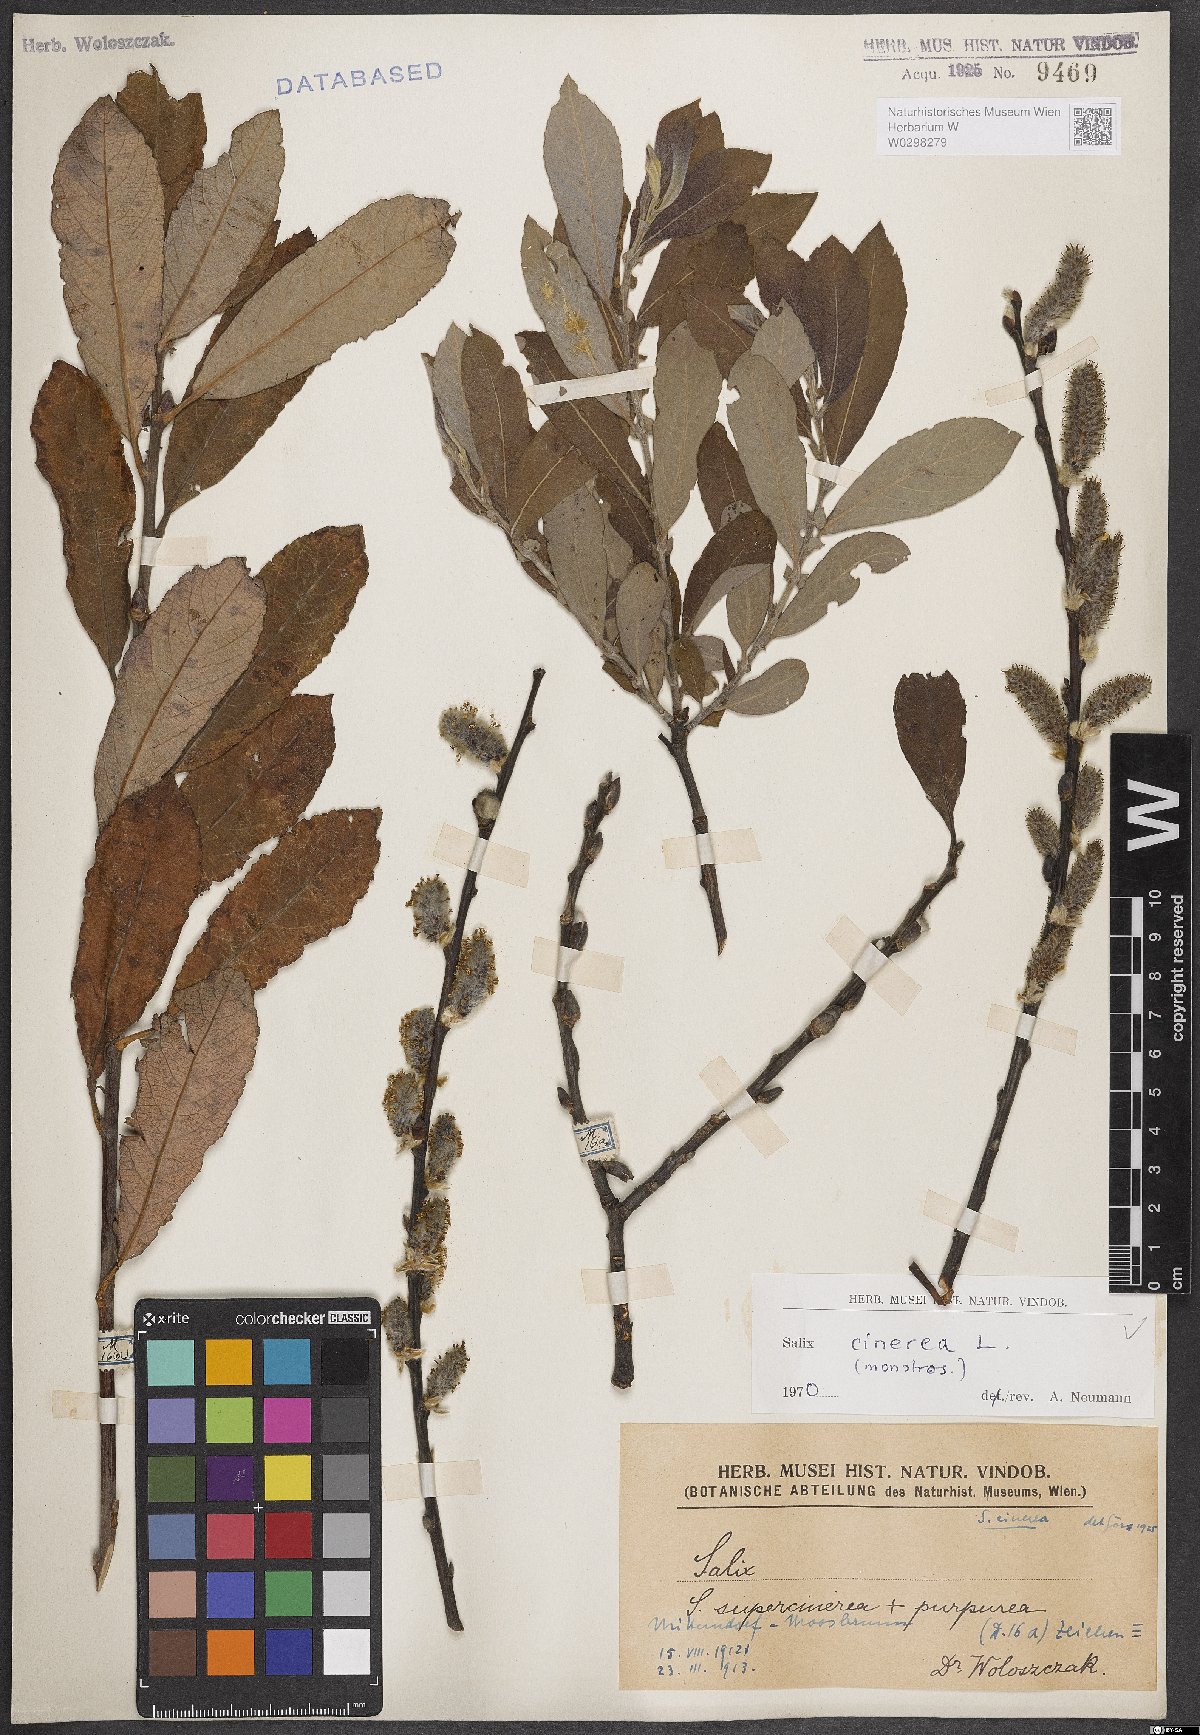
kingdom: Plantae
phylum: Tracheophyta
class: Magnoliopsida
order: Malpighiales
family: Salicaceae
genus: Salix
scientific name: Salix cinerea
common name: Common sallow
